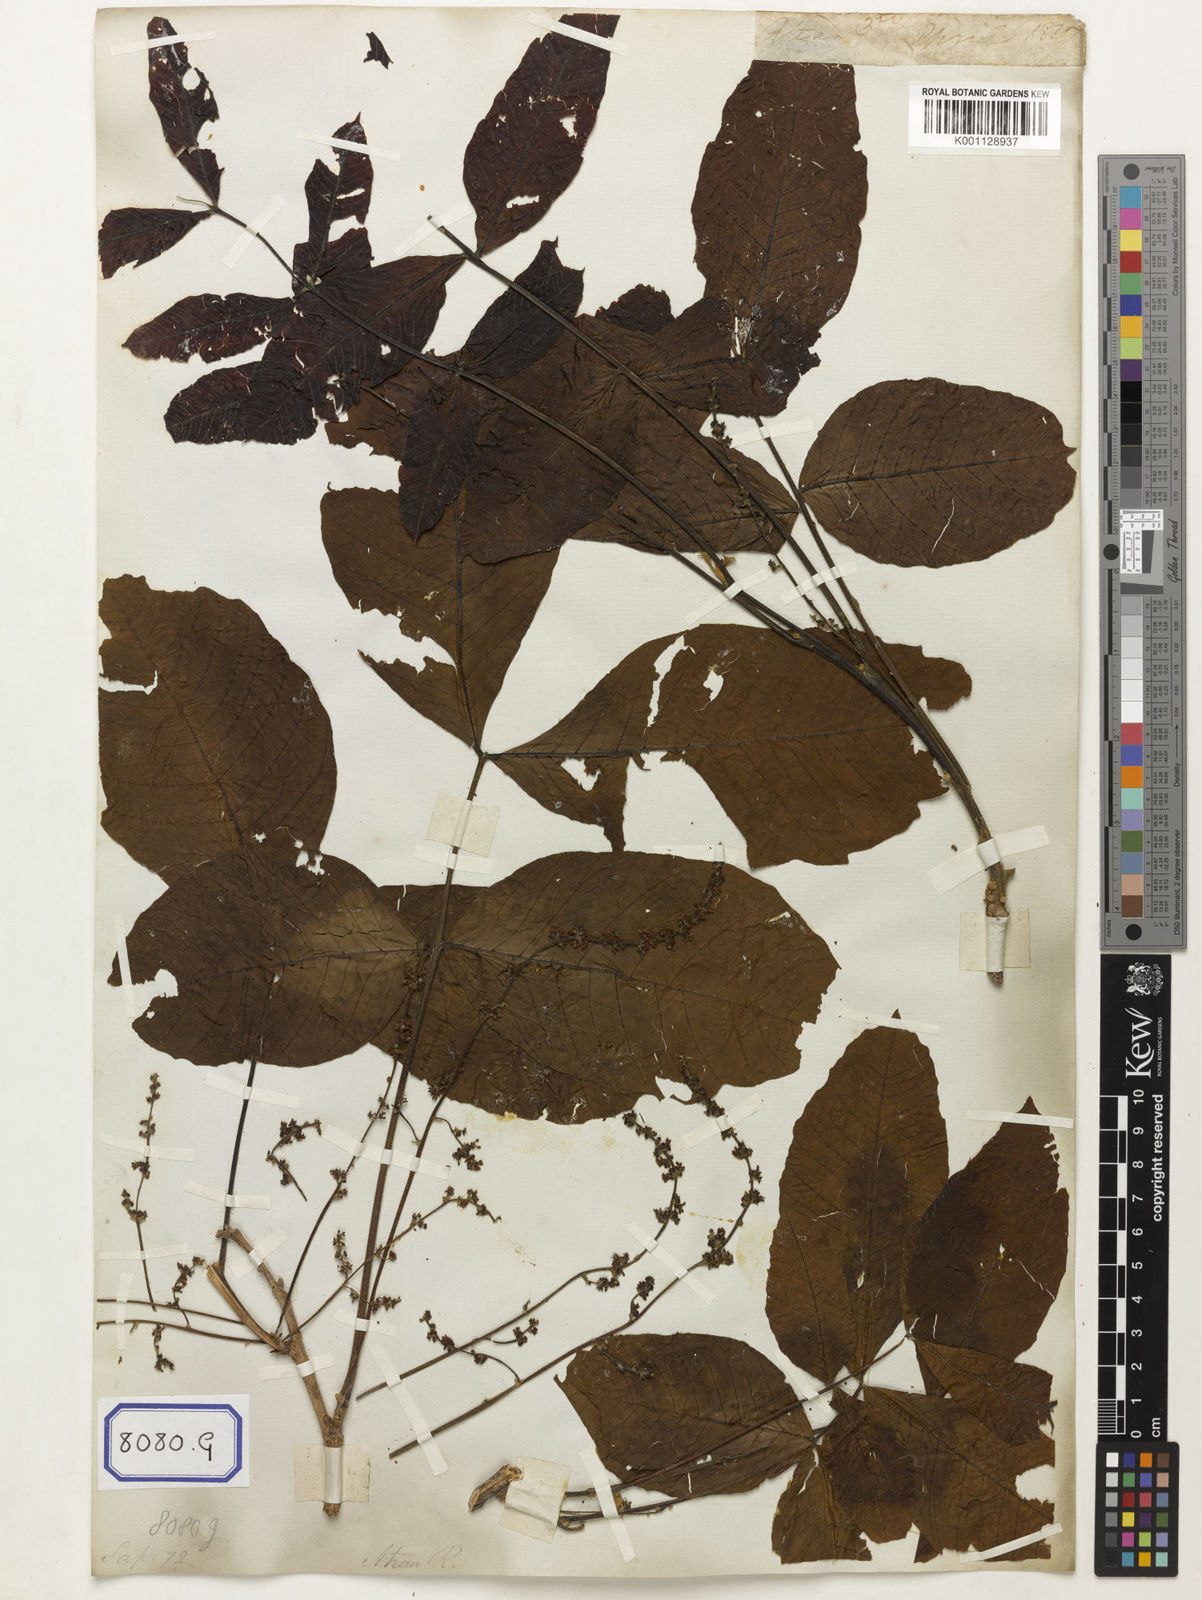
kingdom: Plantae
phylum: Tracheophyta
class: Magnoliopsida
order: Sapindales
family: Sapindaceae
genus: Schleichera
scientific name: Schleichera oleosa
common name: Malay lactree
